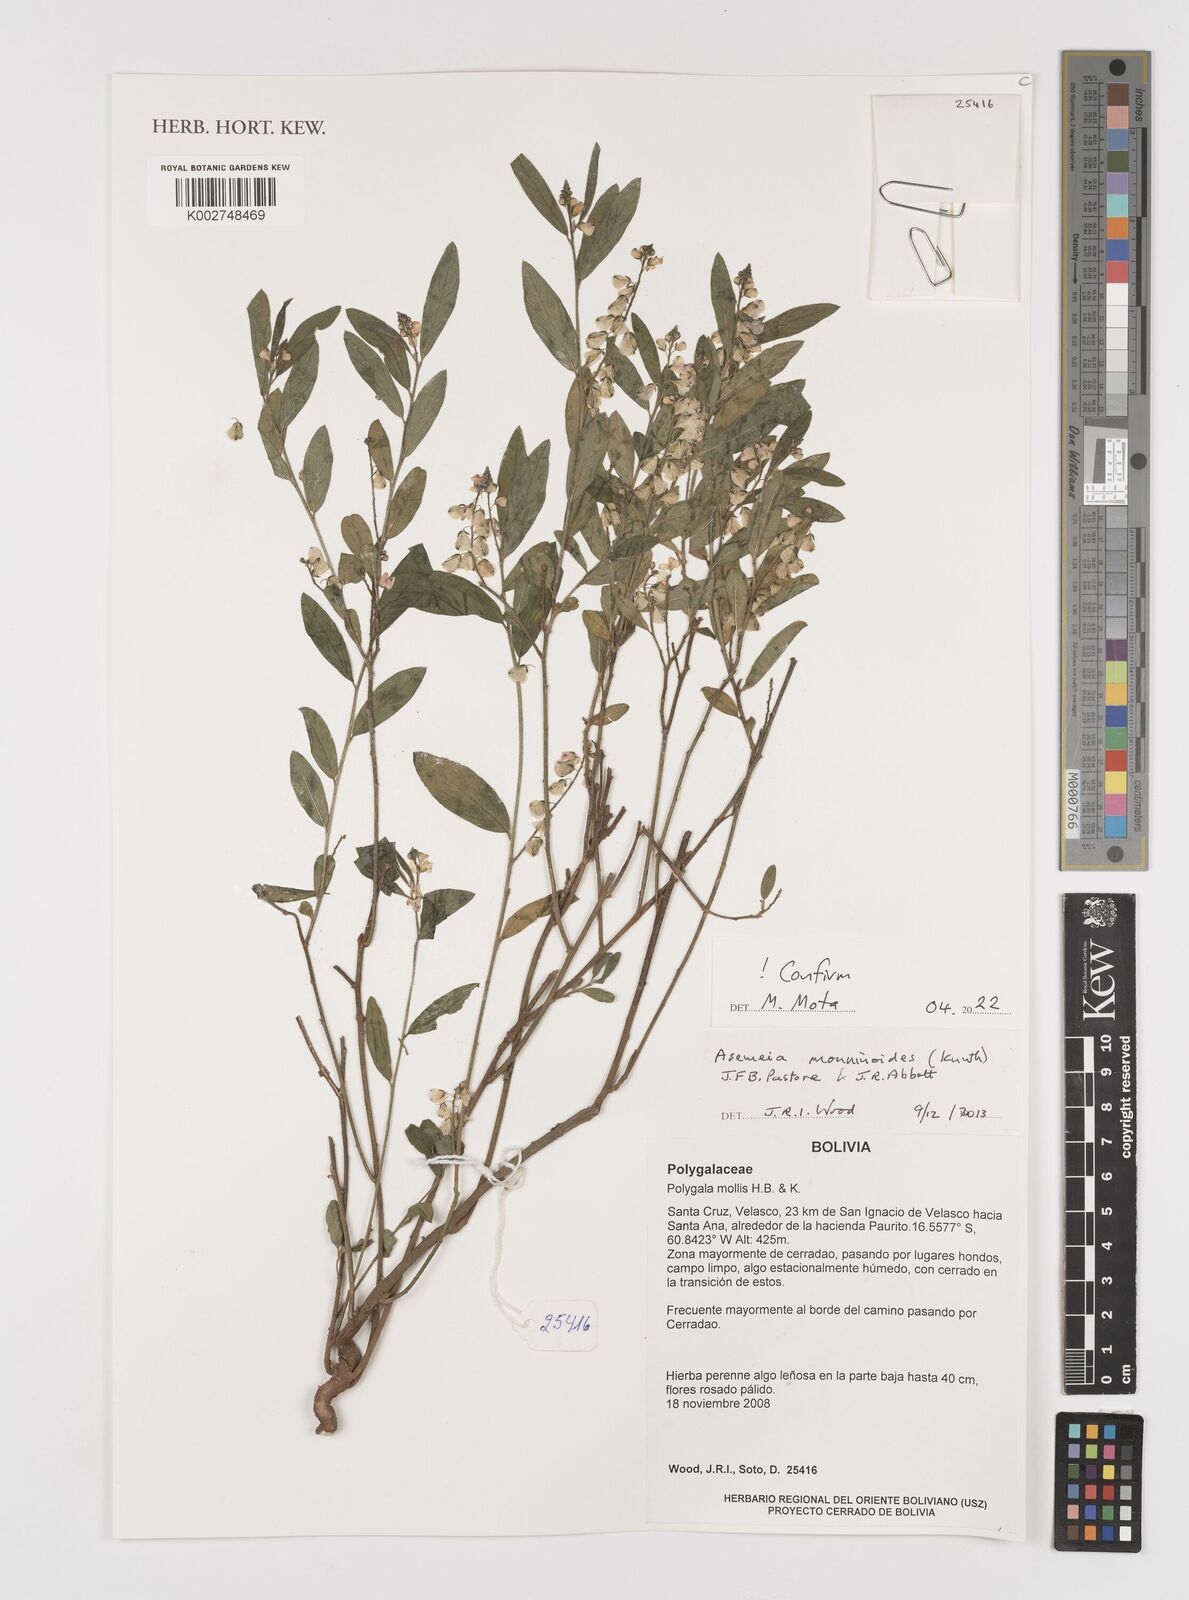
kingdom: Plantae
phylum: Tracheophyta
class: Magnoliopsida
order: Fabales
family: Polygalaceae
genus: Asemeia
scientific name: Asemeia monninoides
